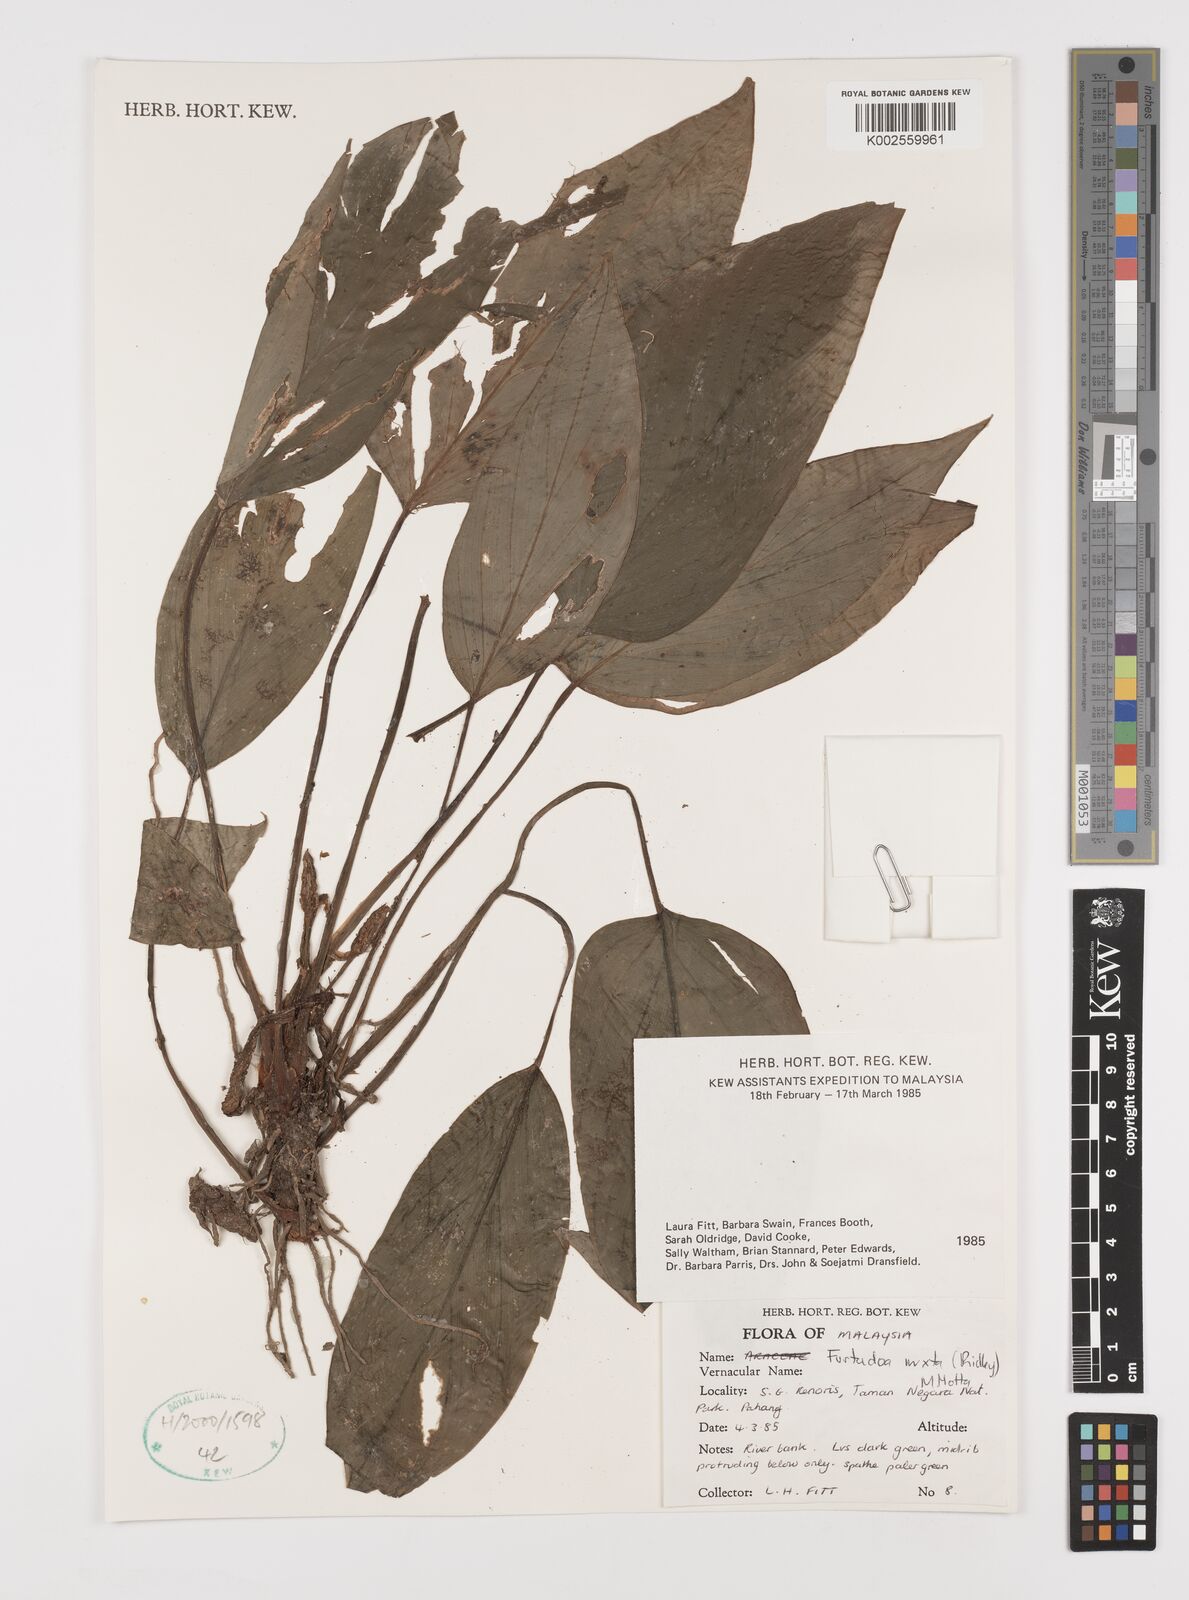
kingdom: Plantae
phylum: Tracheophyta
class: Liliopsida
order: Alismatales
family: Araceae
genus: Furtadoa
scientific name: Furtadoa mixta
